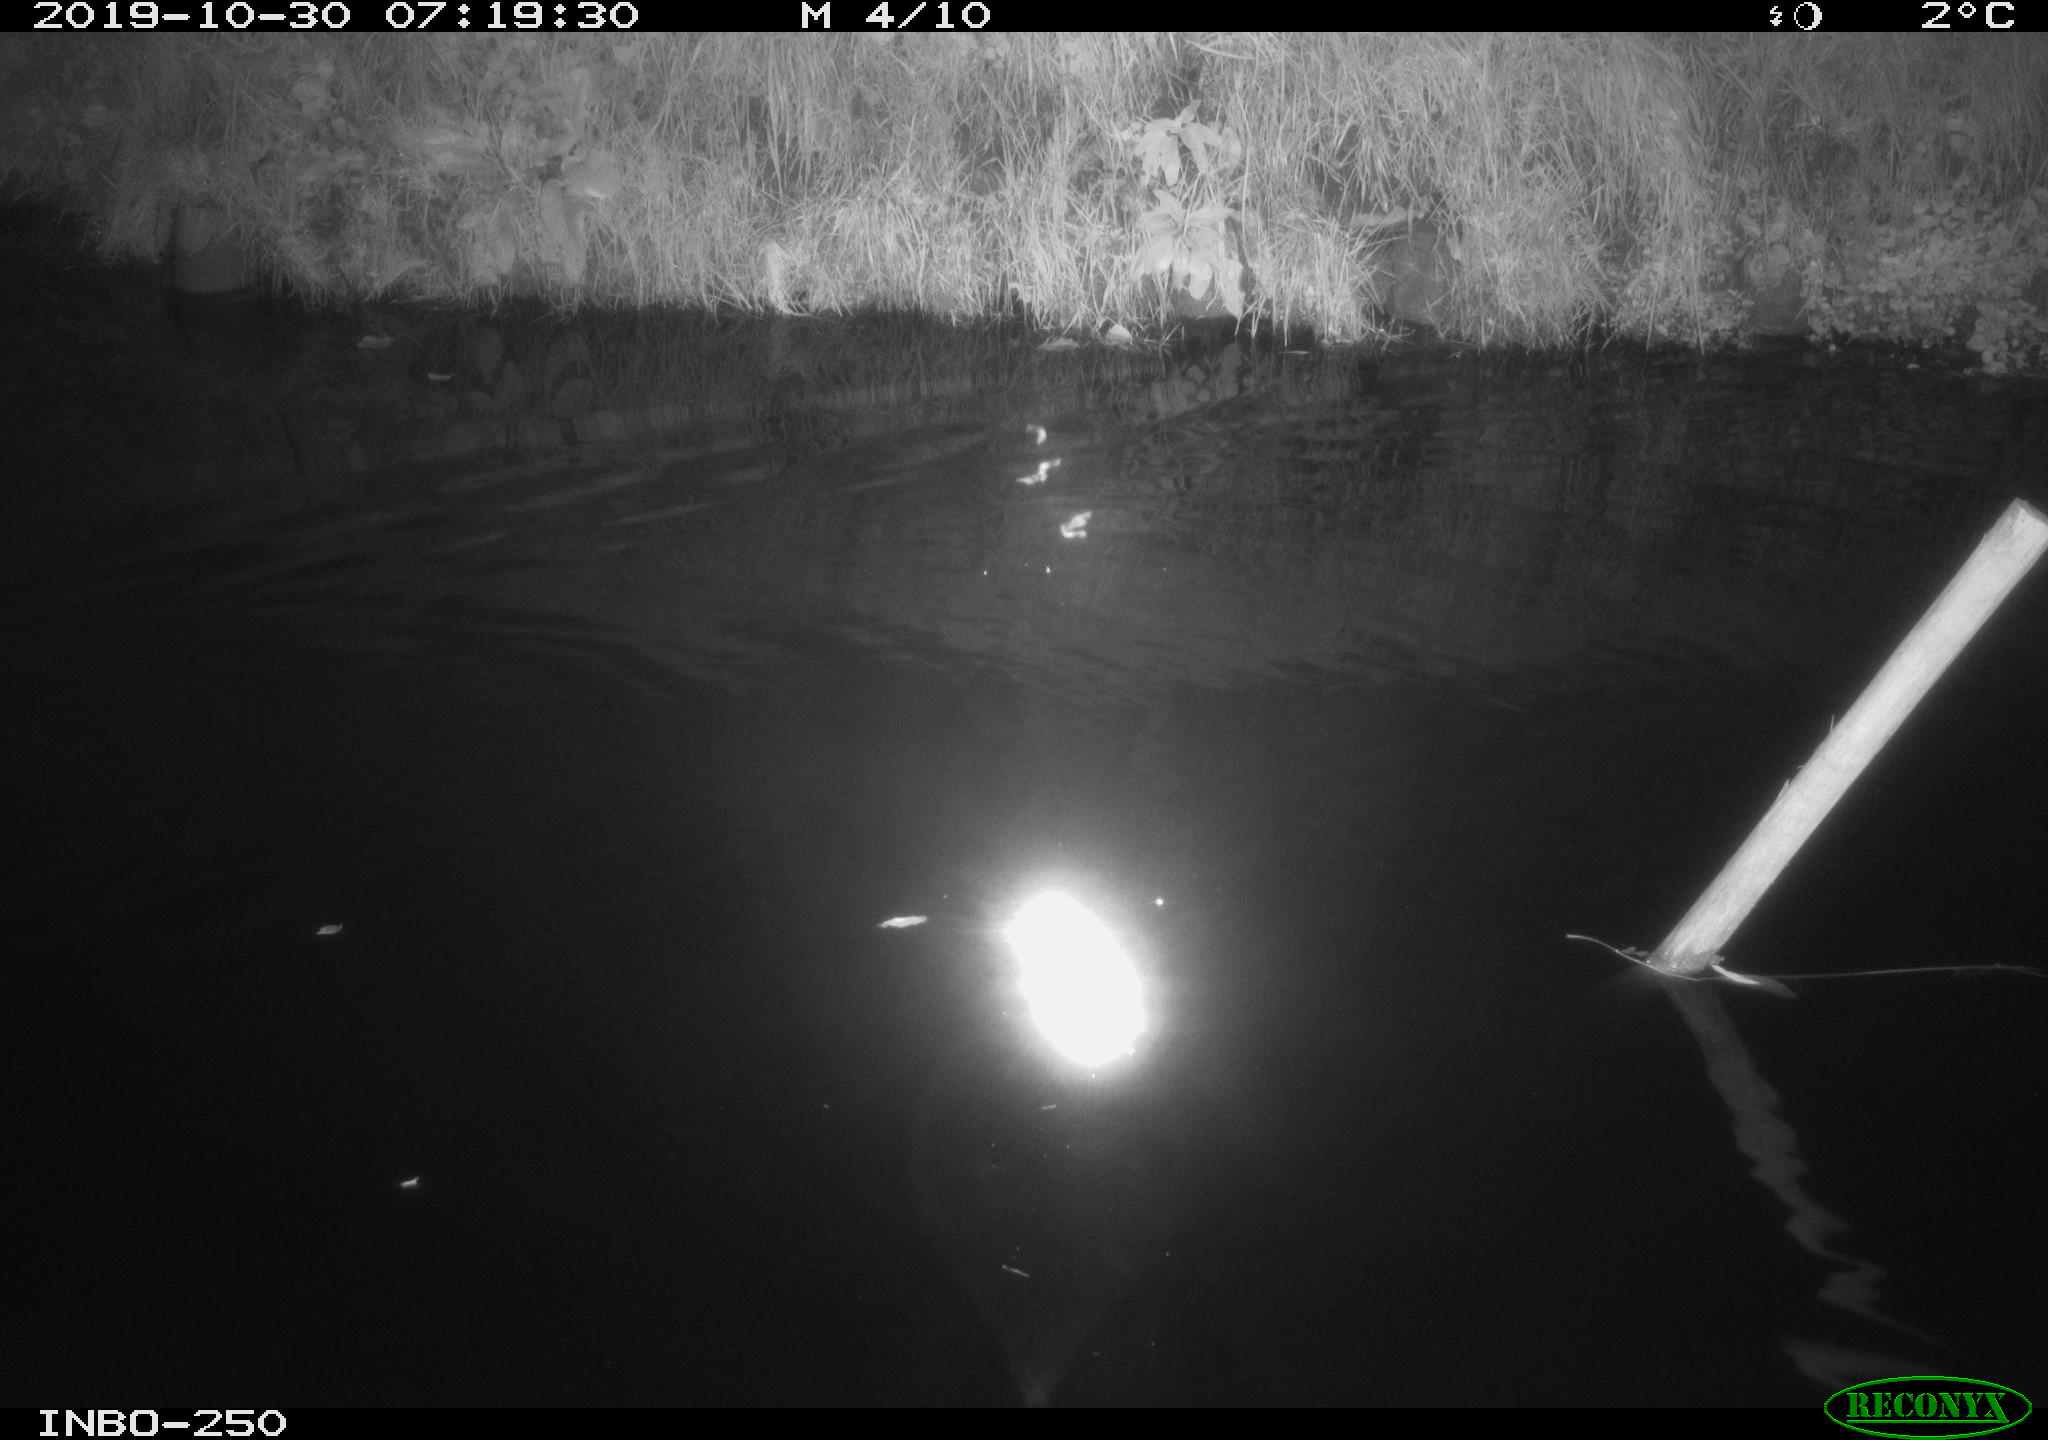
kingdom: Animalia
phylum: Chordata
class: Aves
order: Anseriformes
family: Anatidae
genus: Anas
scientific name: Anas platyrhynchos
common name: Mallard
